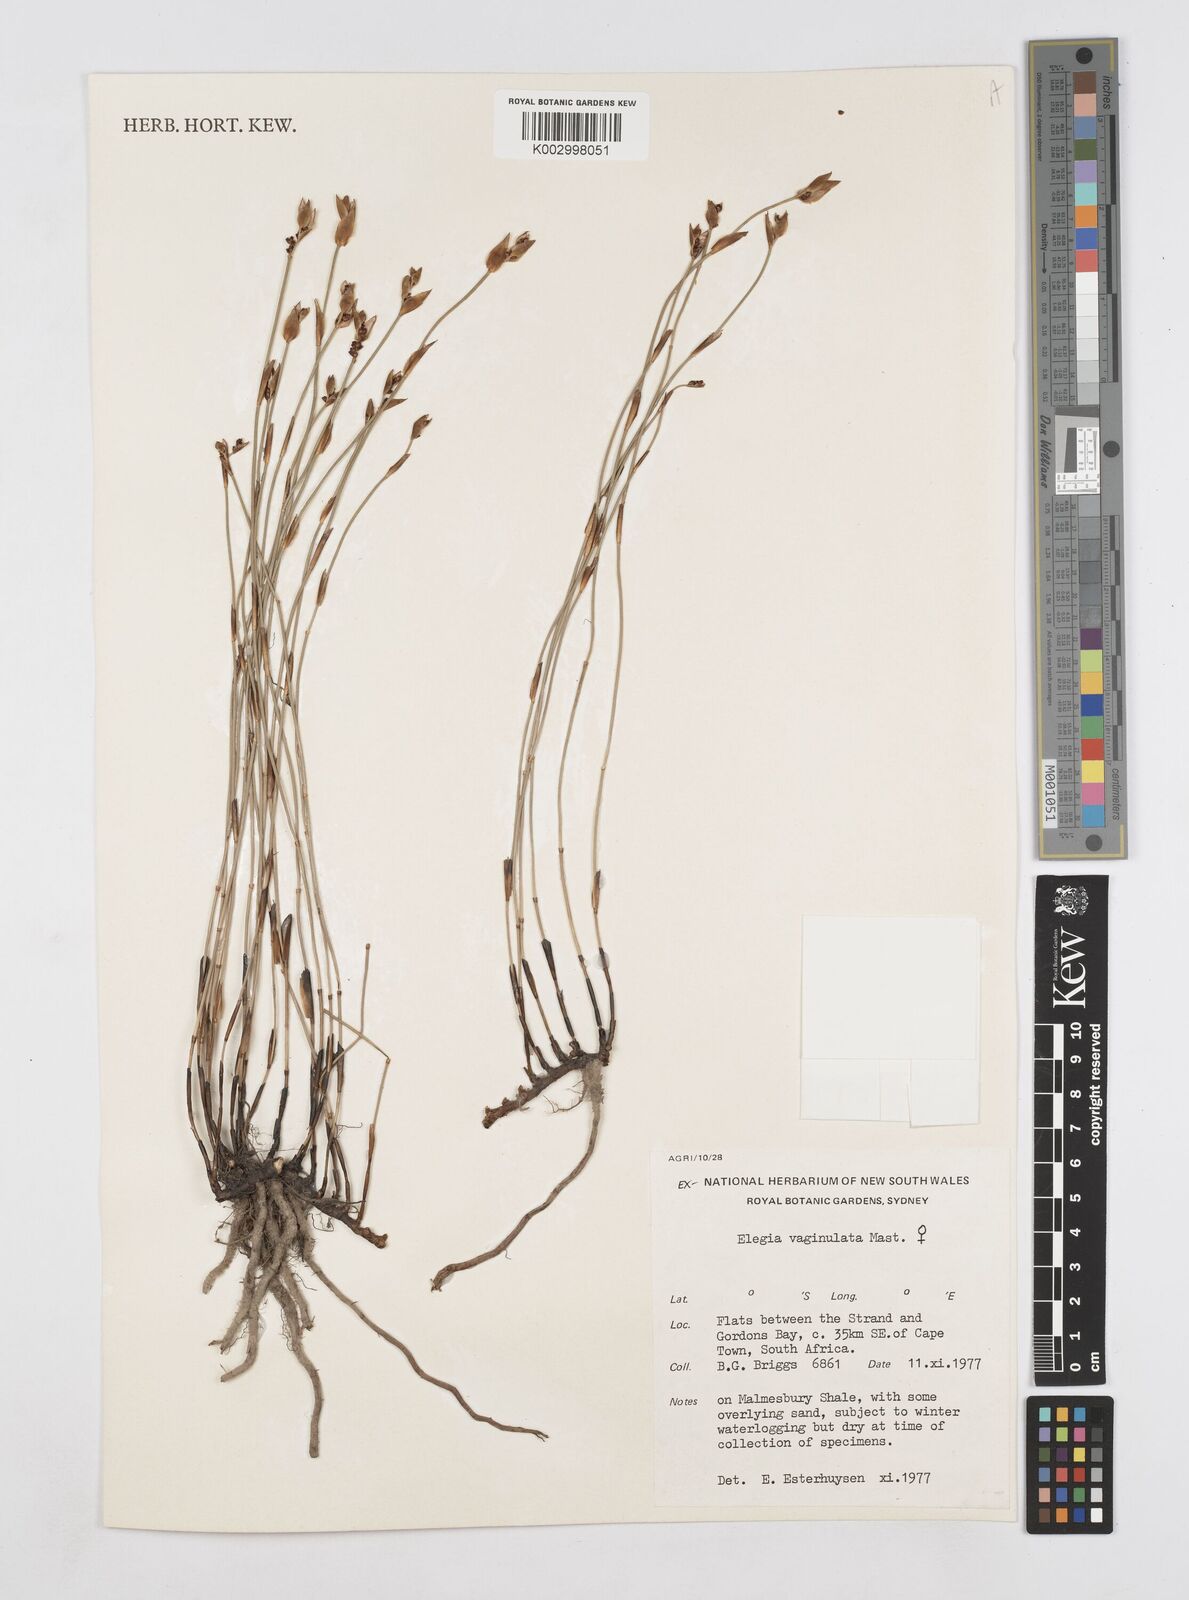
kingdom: Plantae
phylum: Tracheophyta
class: Liliopsida
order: Poales
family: Restionaceae
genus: Elegia
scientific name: Elegia vaginulata
